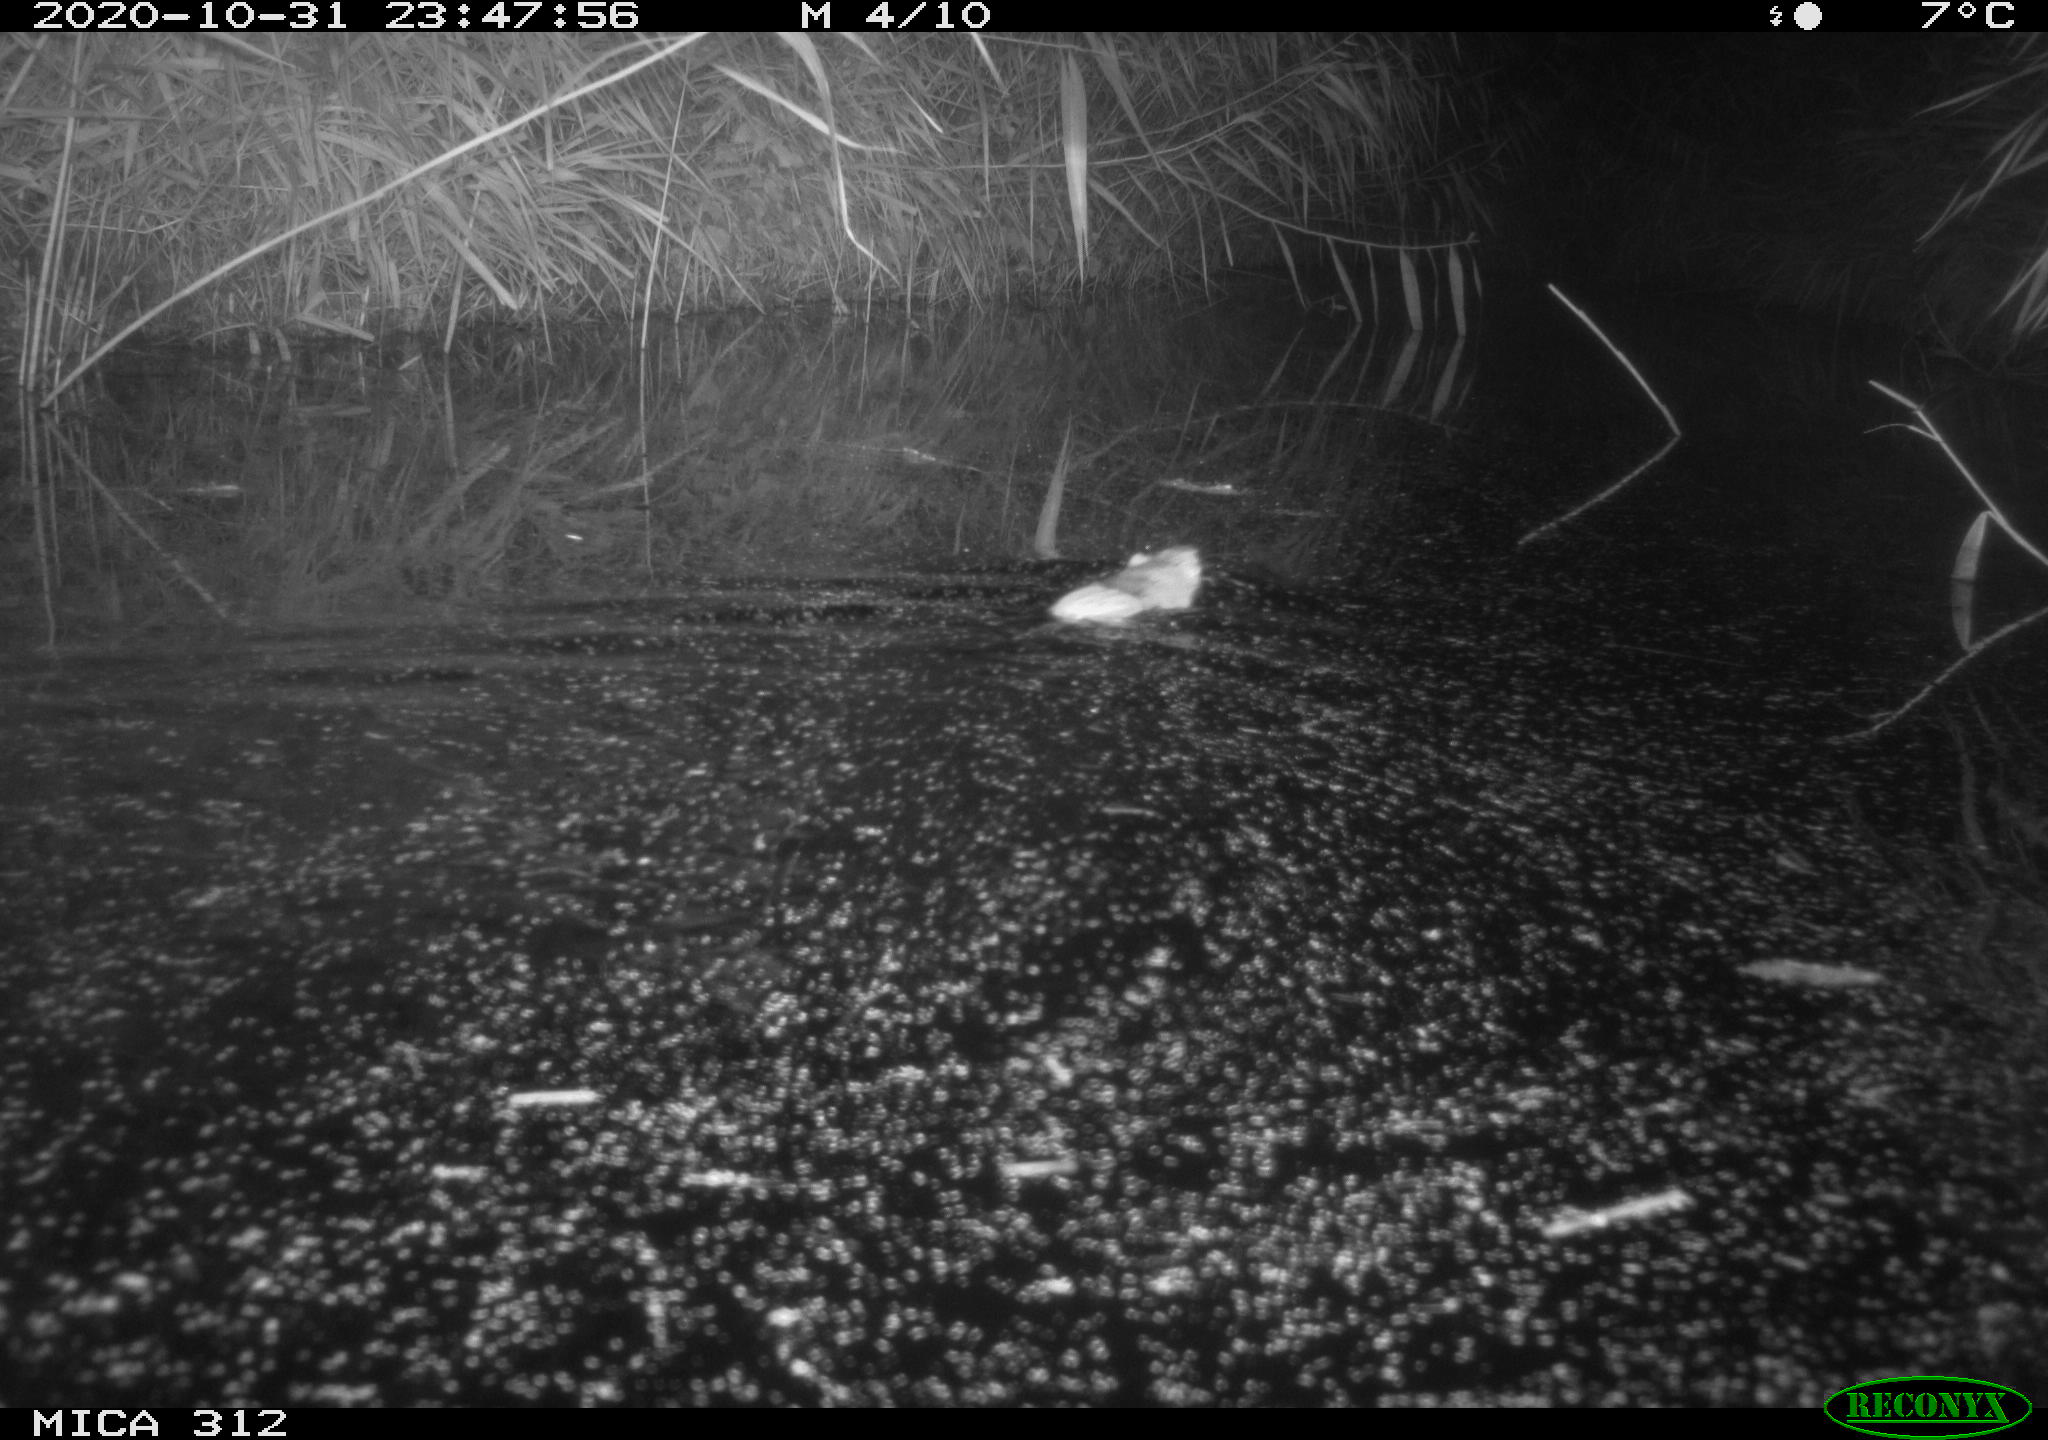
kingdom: Animalia
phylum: Chordata
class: Mammalia
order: Rodentia
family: Muridae
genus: Rattus
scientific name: Rattus norvegicus
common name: Brown rat
